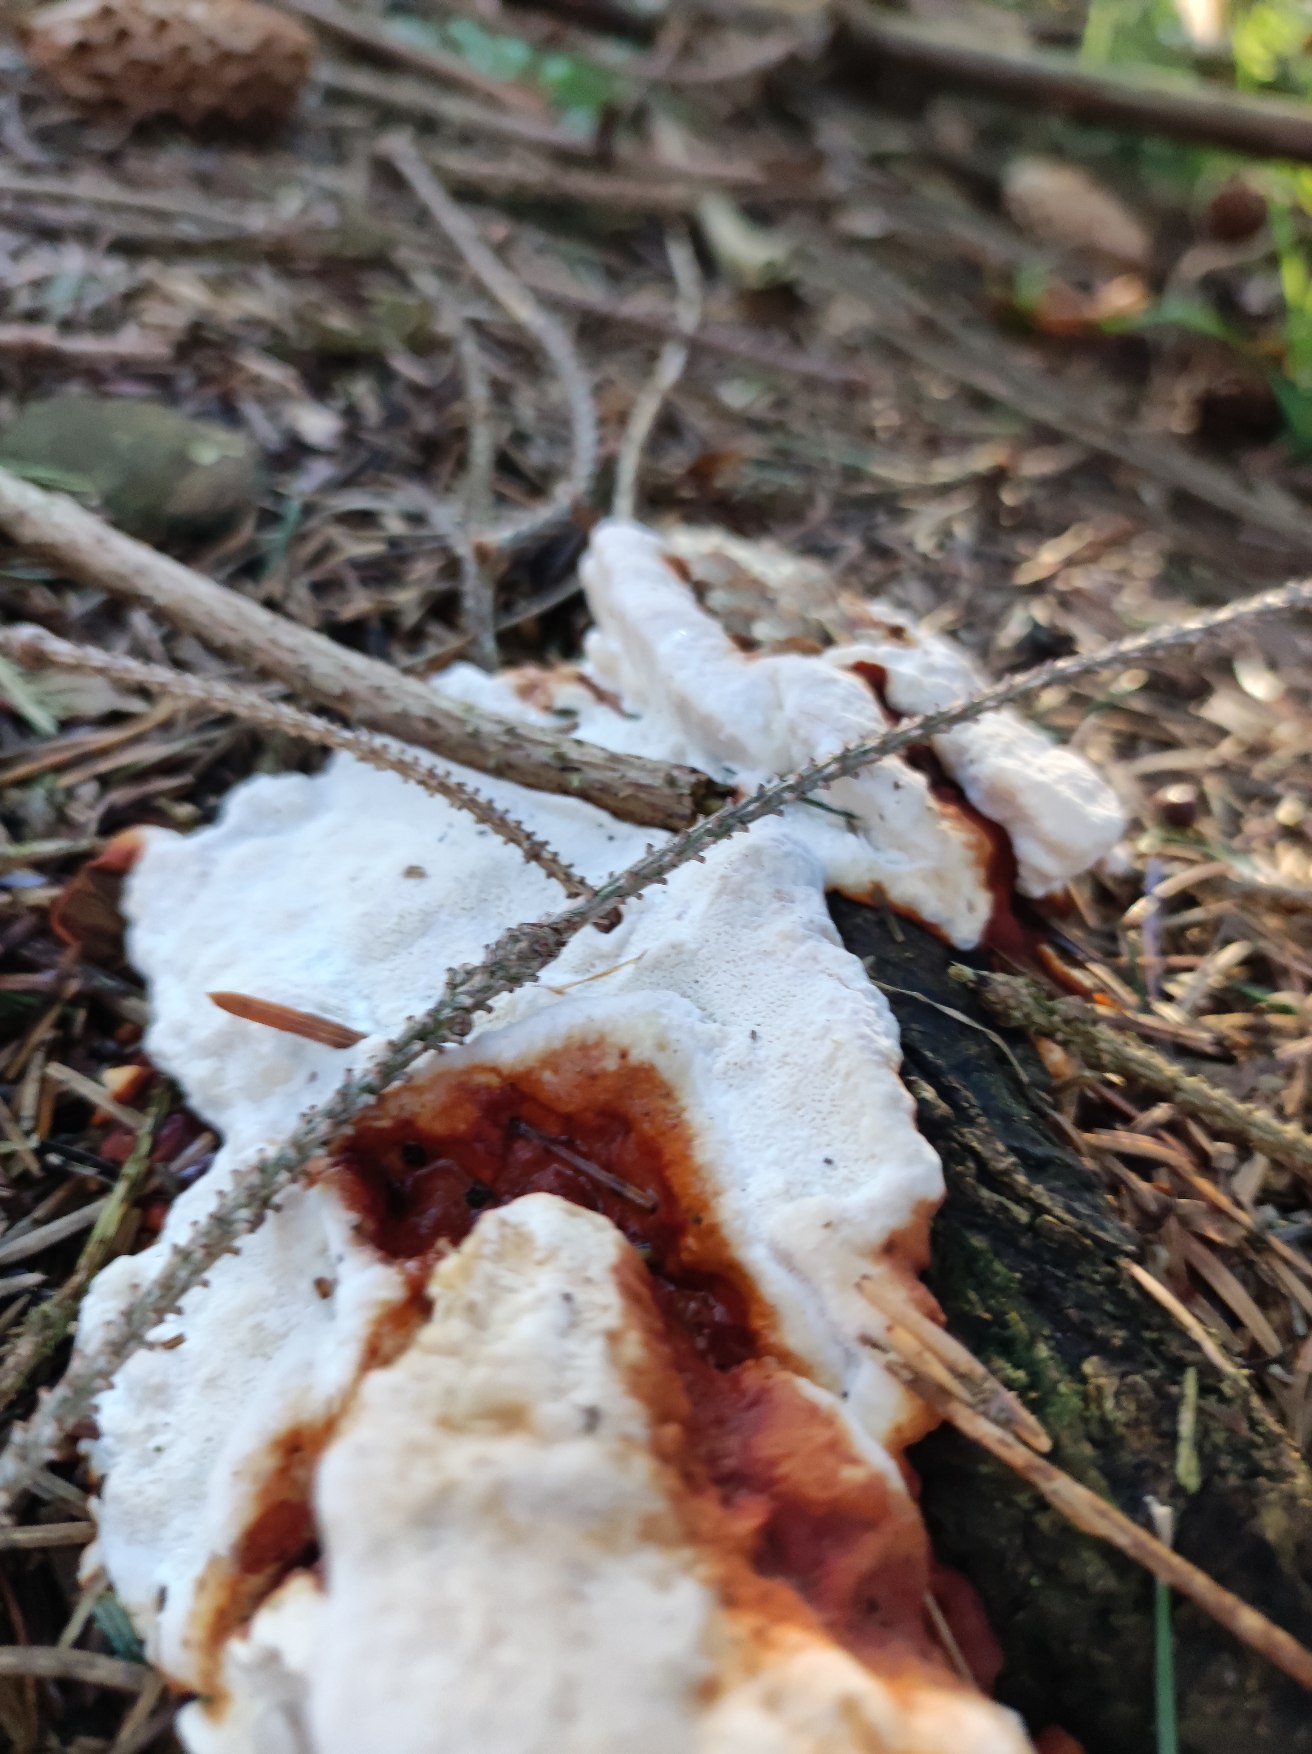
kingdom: Fungi
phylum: Basidiomycota
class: Agaricomycetes
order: Russulales
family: Bondarzewiaceae
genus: Heterobasidion
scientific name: Heterobasidion annosum
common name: Almindelig rodfordærver
